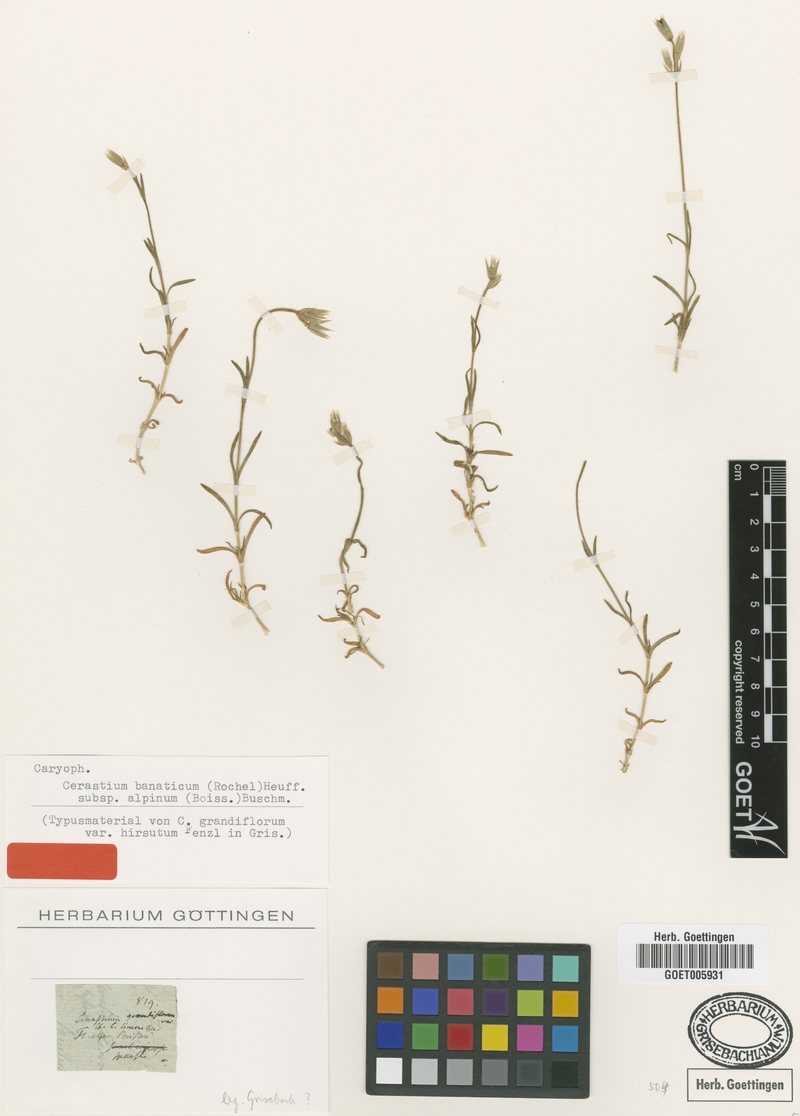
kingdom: Plantae
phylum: Tracheophyta
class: Magnoliopsida
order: Caryophyllales
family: Caryophyllaceae
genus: Cerastium
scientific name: Cerastium banaticum
